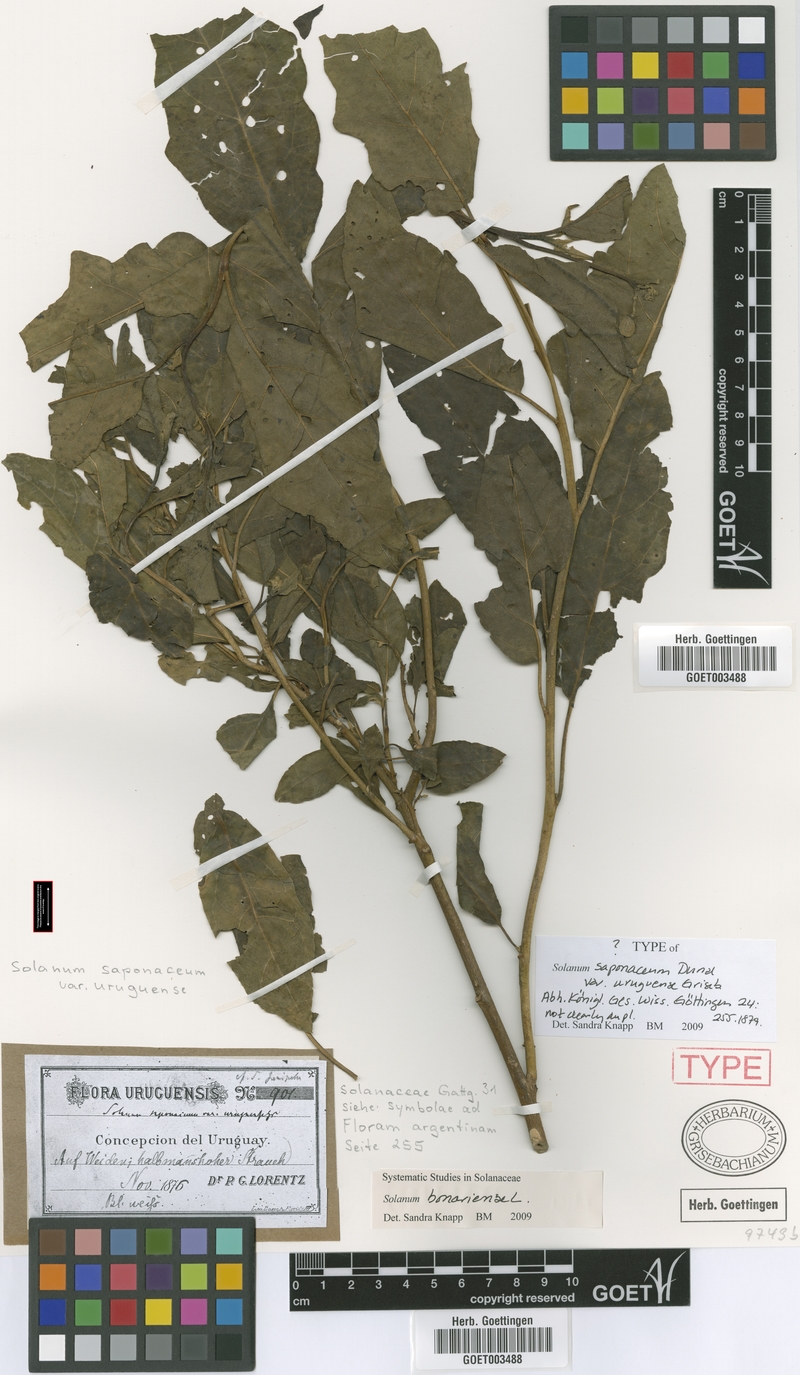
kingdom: Plantae
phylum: Tracheophyta
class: Magnoliopsida
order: Solanales
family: Solanaceae
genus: Solanum
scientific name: Solanum bonariense
